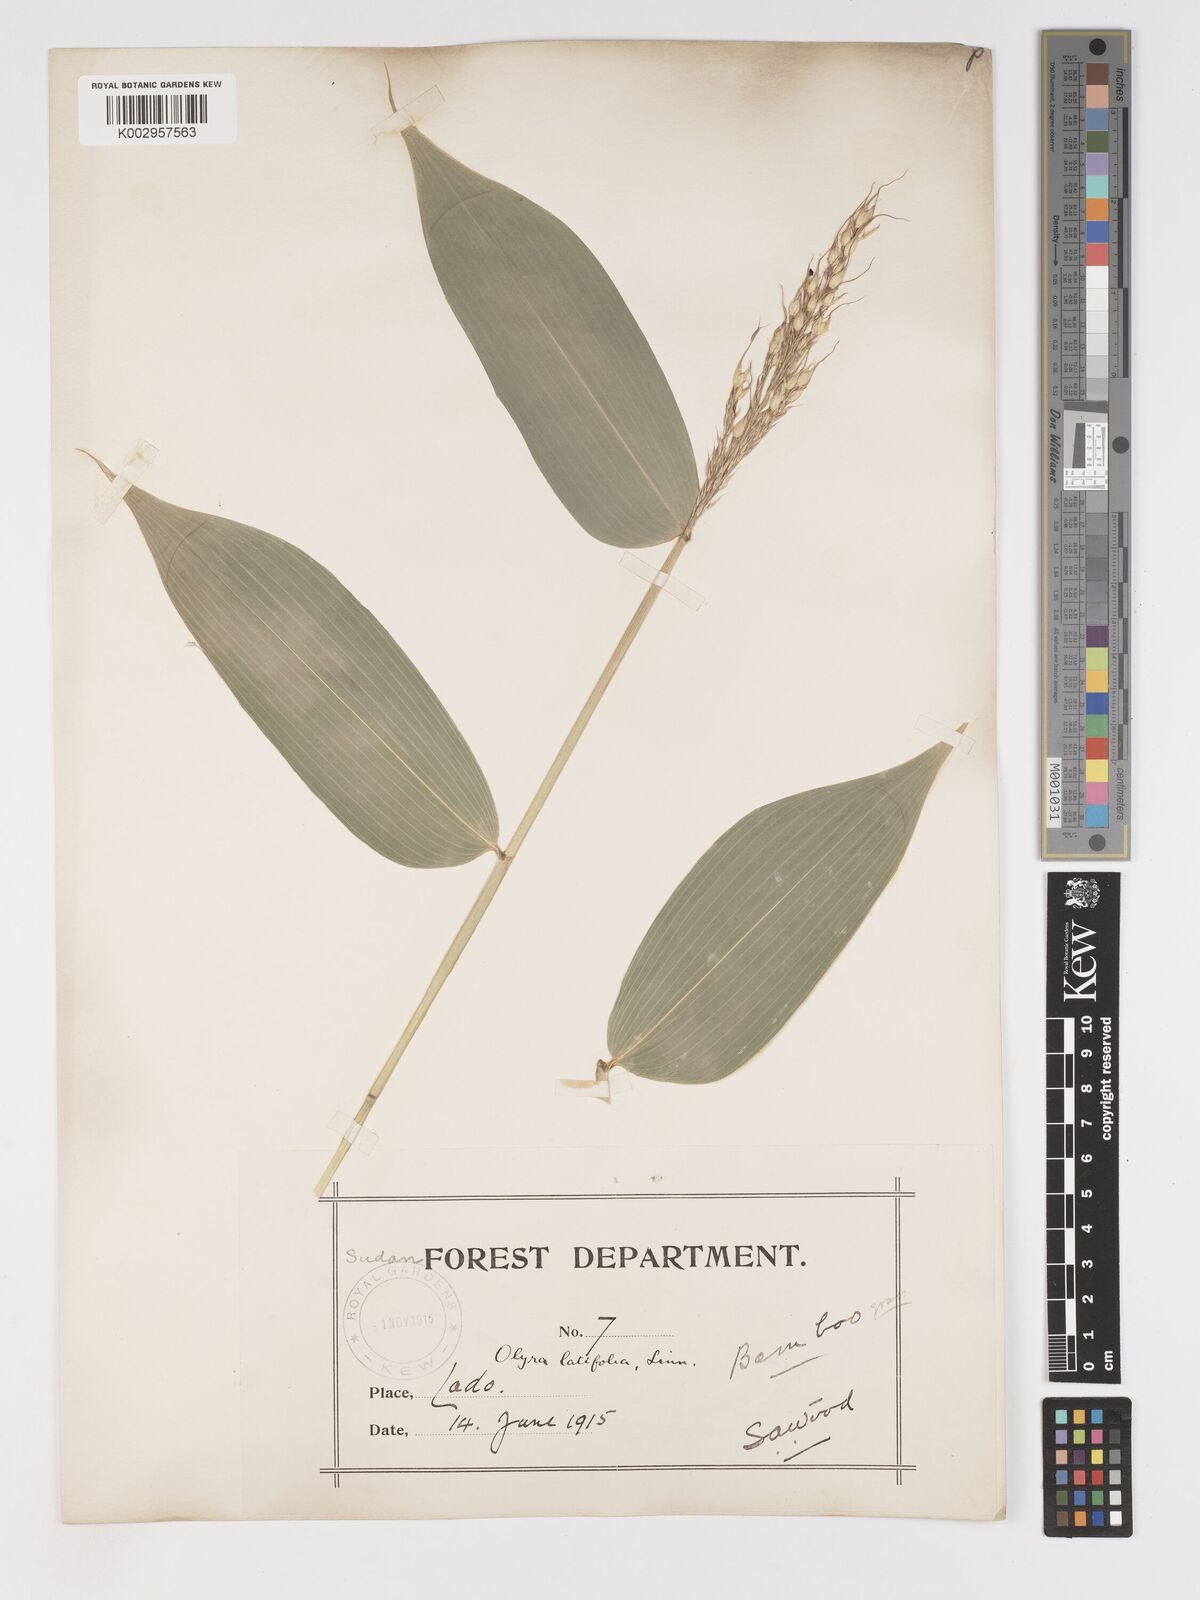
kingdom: Plantae
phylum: Tracheophyta
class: Liliopsida
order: Poales
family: Poaceae
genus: Olyra
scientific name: Olyra latifolia
